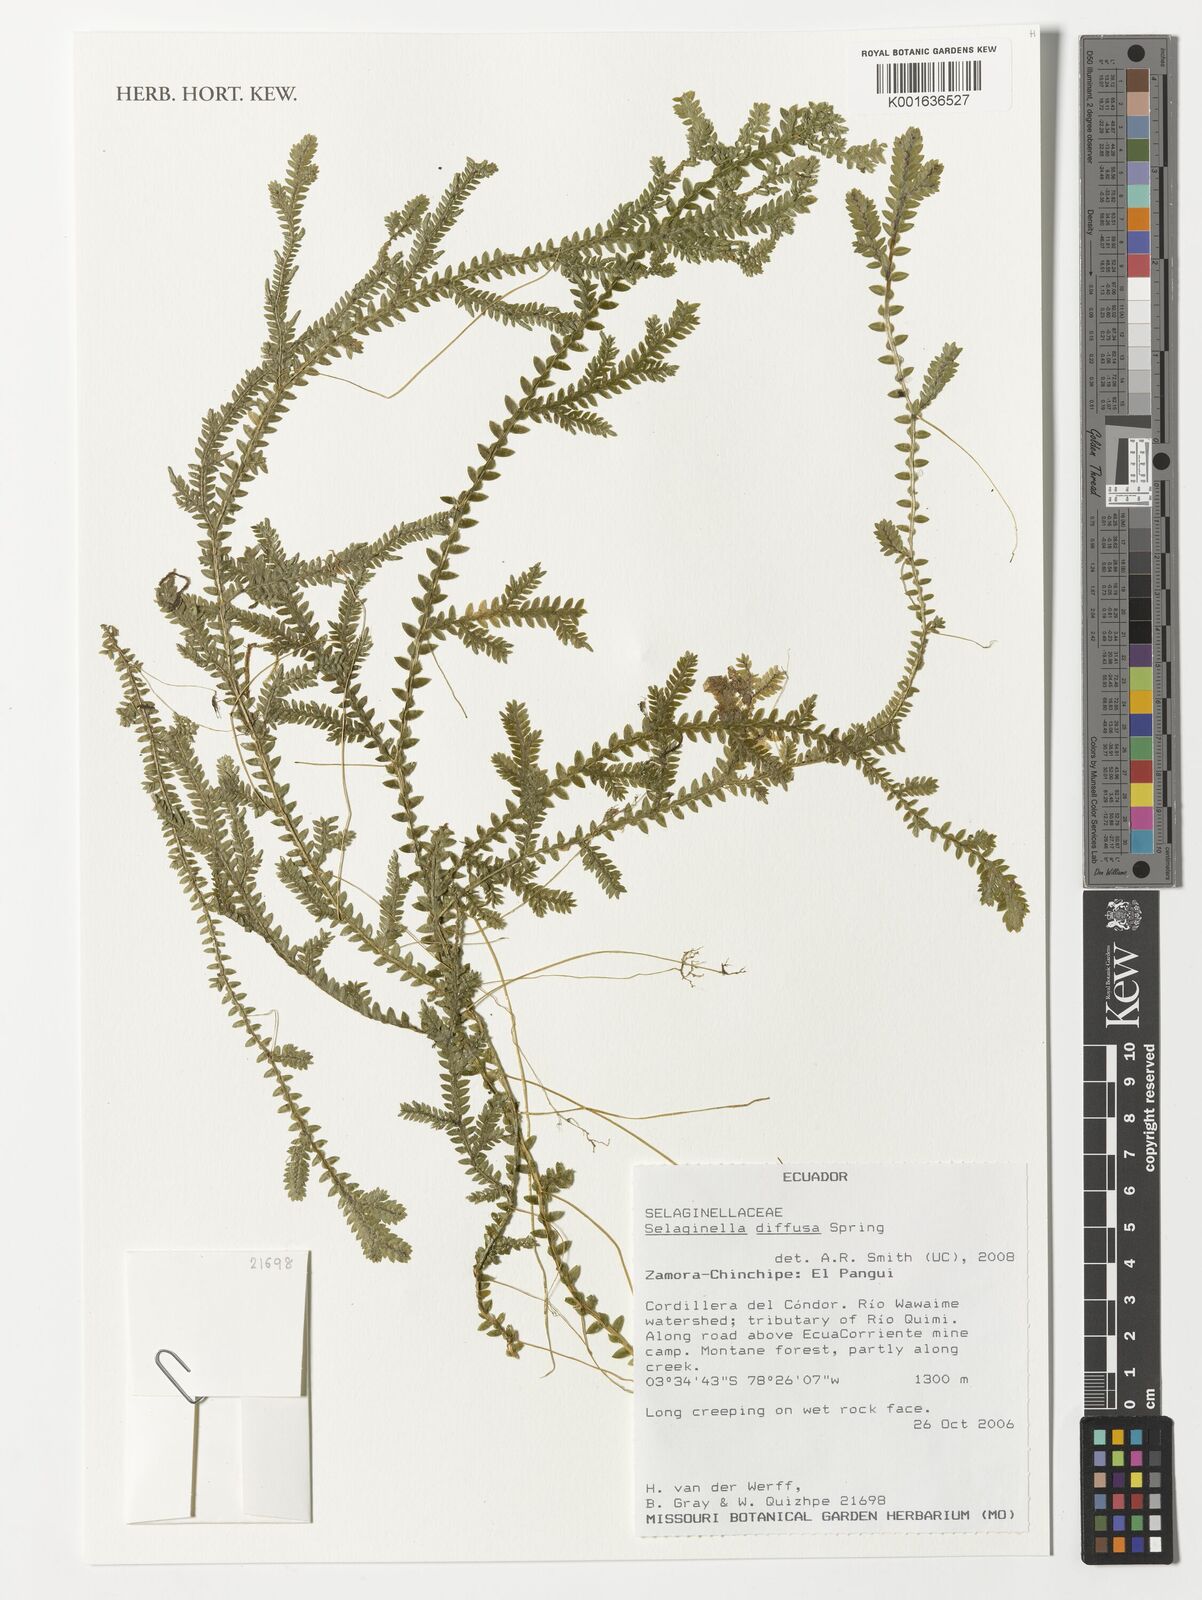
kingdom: Plantae
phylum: Tracheophyta
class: Lycopodiopsida
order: Selaginellales
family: Selaginellaceae
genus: Selaginella
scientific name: Selaginella diffusa
